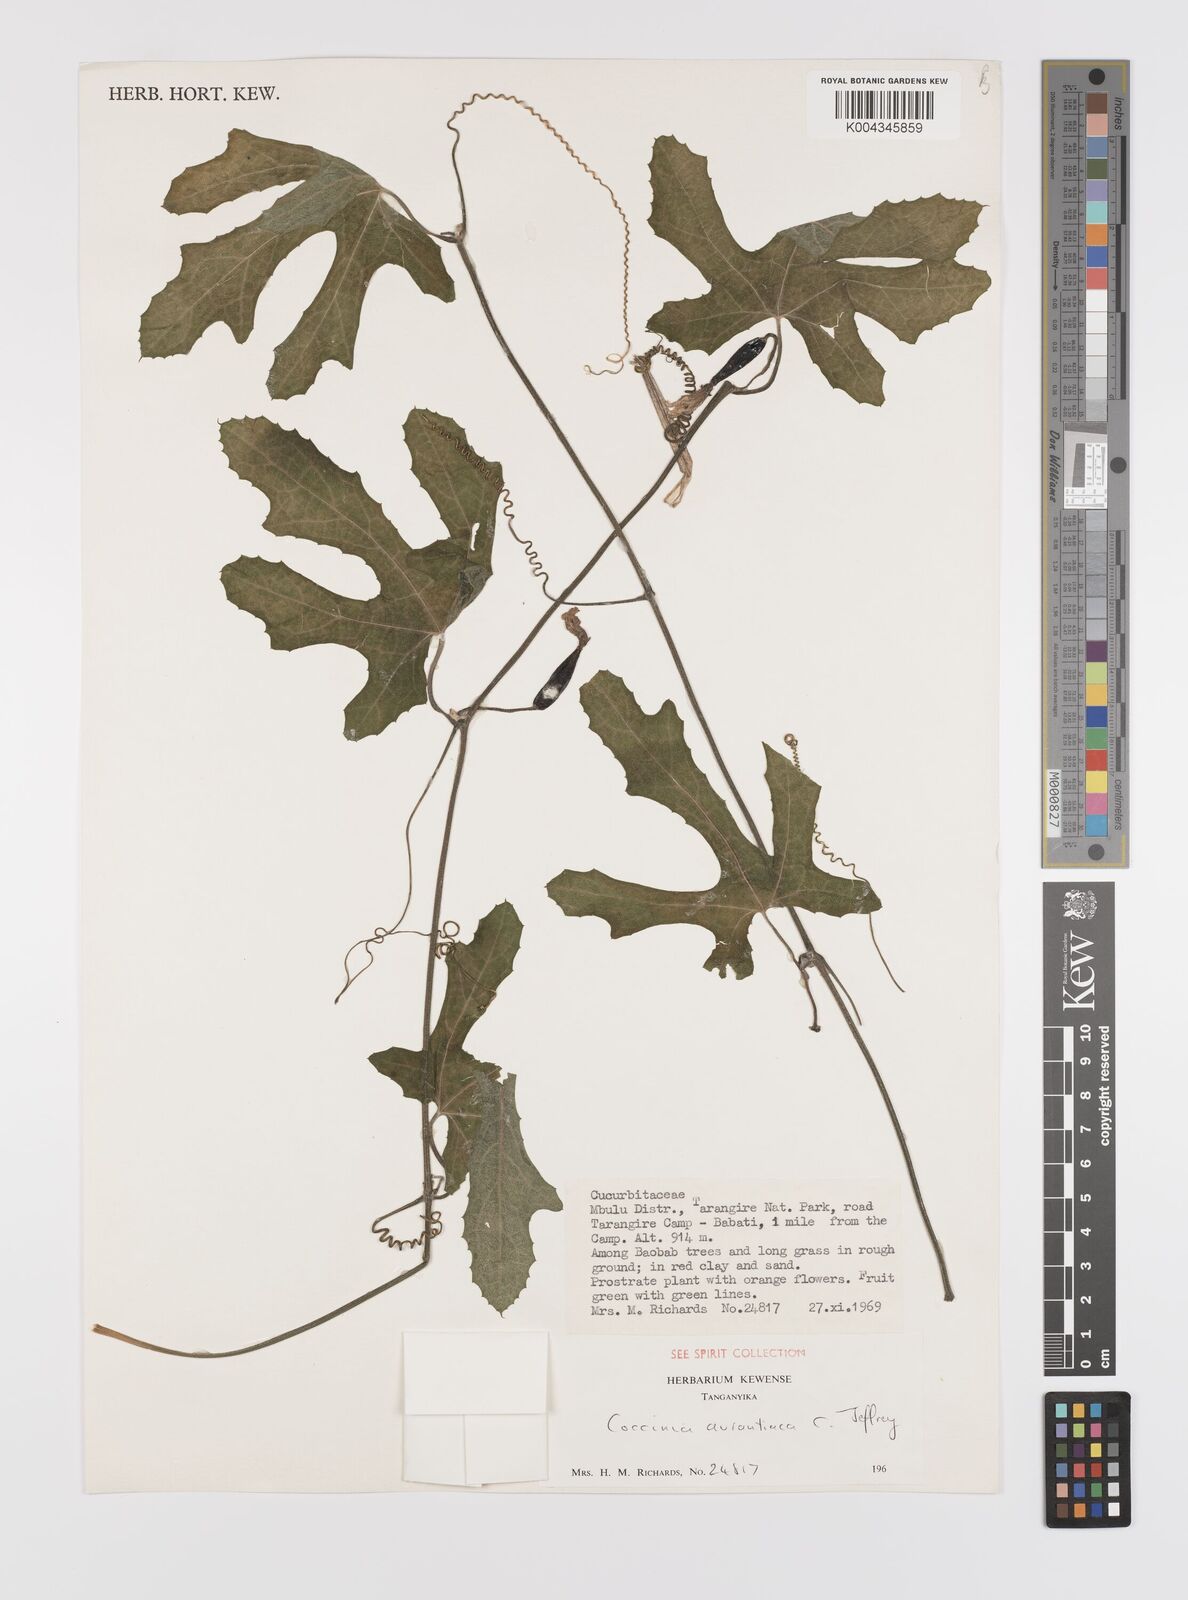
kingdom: Plantae
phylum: Tracheophyta
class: Magnoliopsida
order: Cucurbitales
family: Cucurbitaceae
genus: Coccinia
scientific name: Coccinia adoensis
